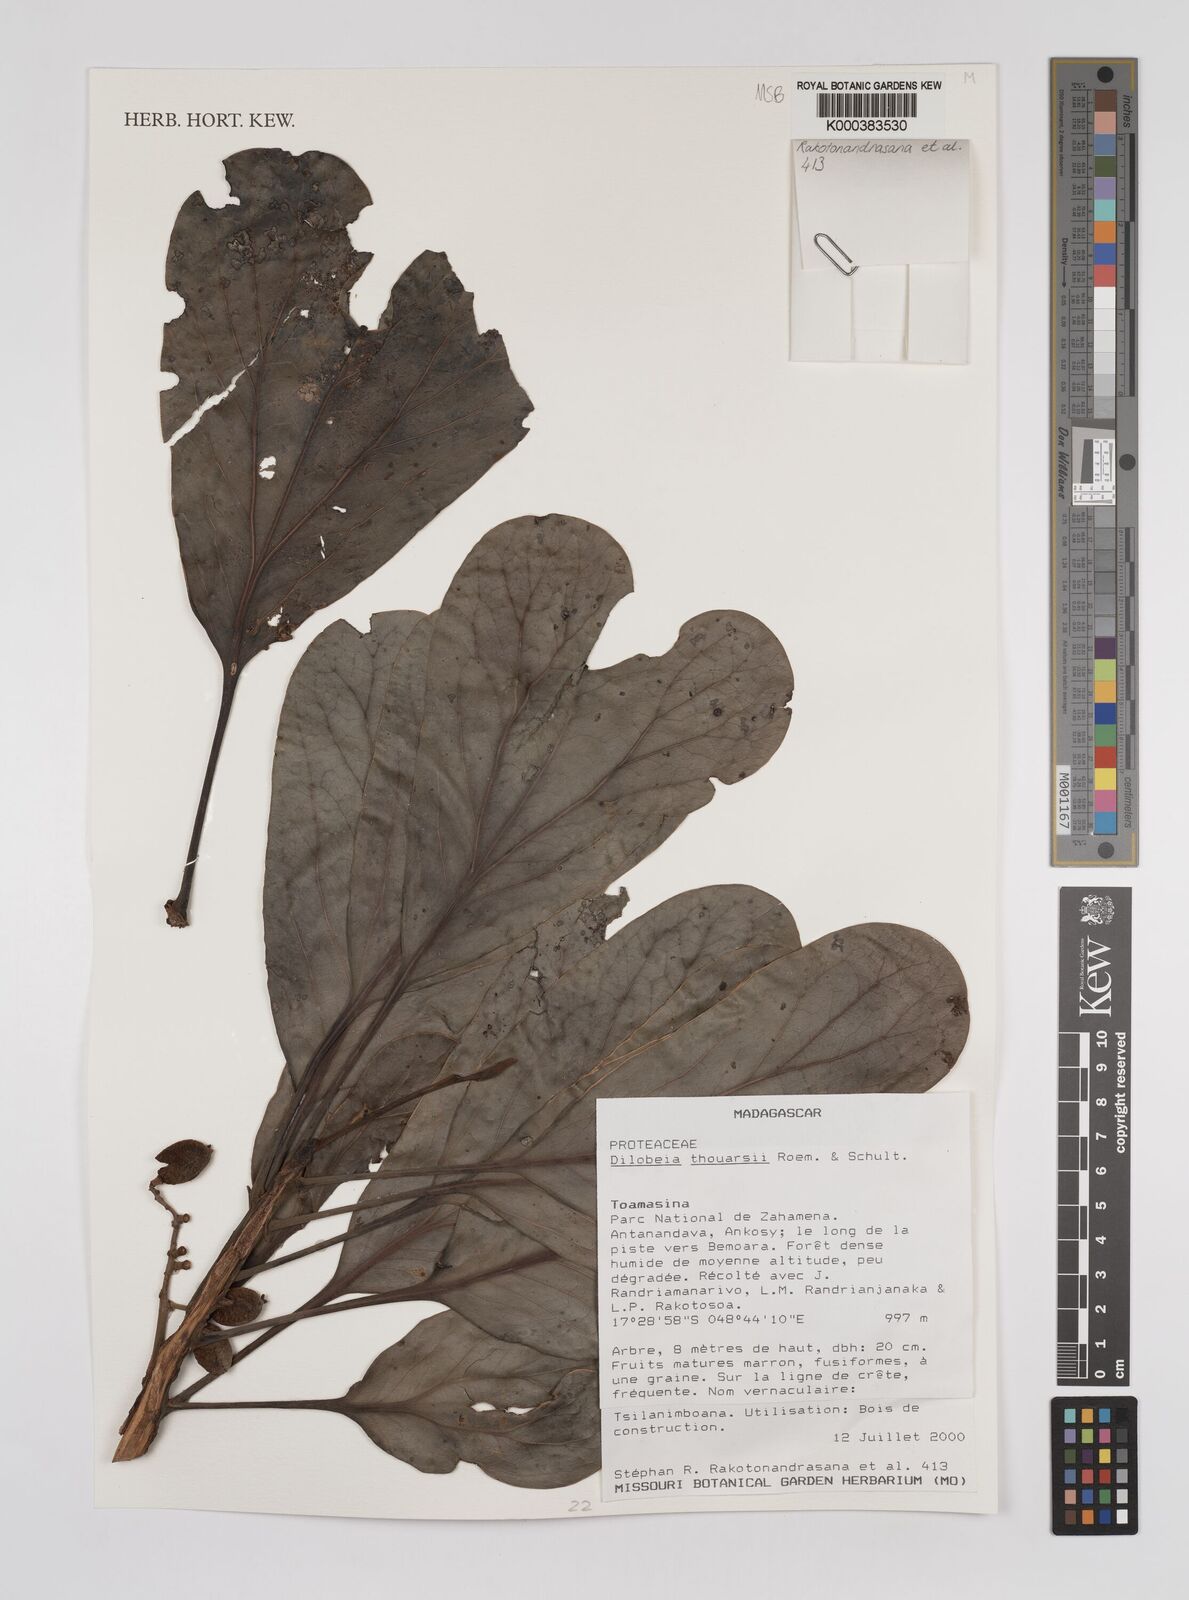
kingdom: Plantae
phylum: Tracheophyta
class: Magnoliopsida
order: Proteales
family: Proteaceae
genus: Dilobeia
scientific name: Dilobeia thouarsii
